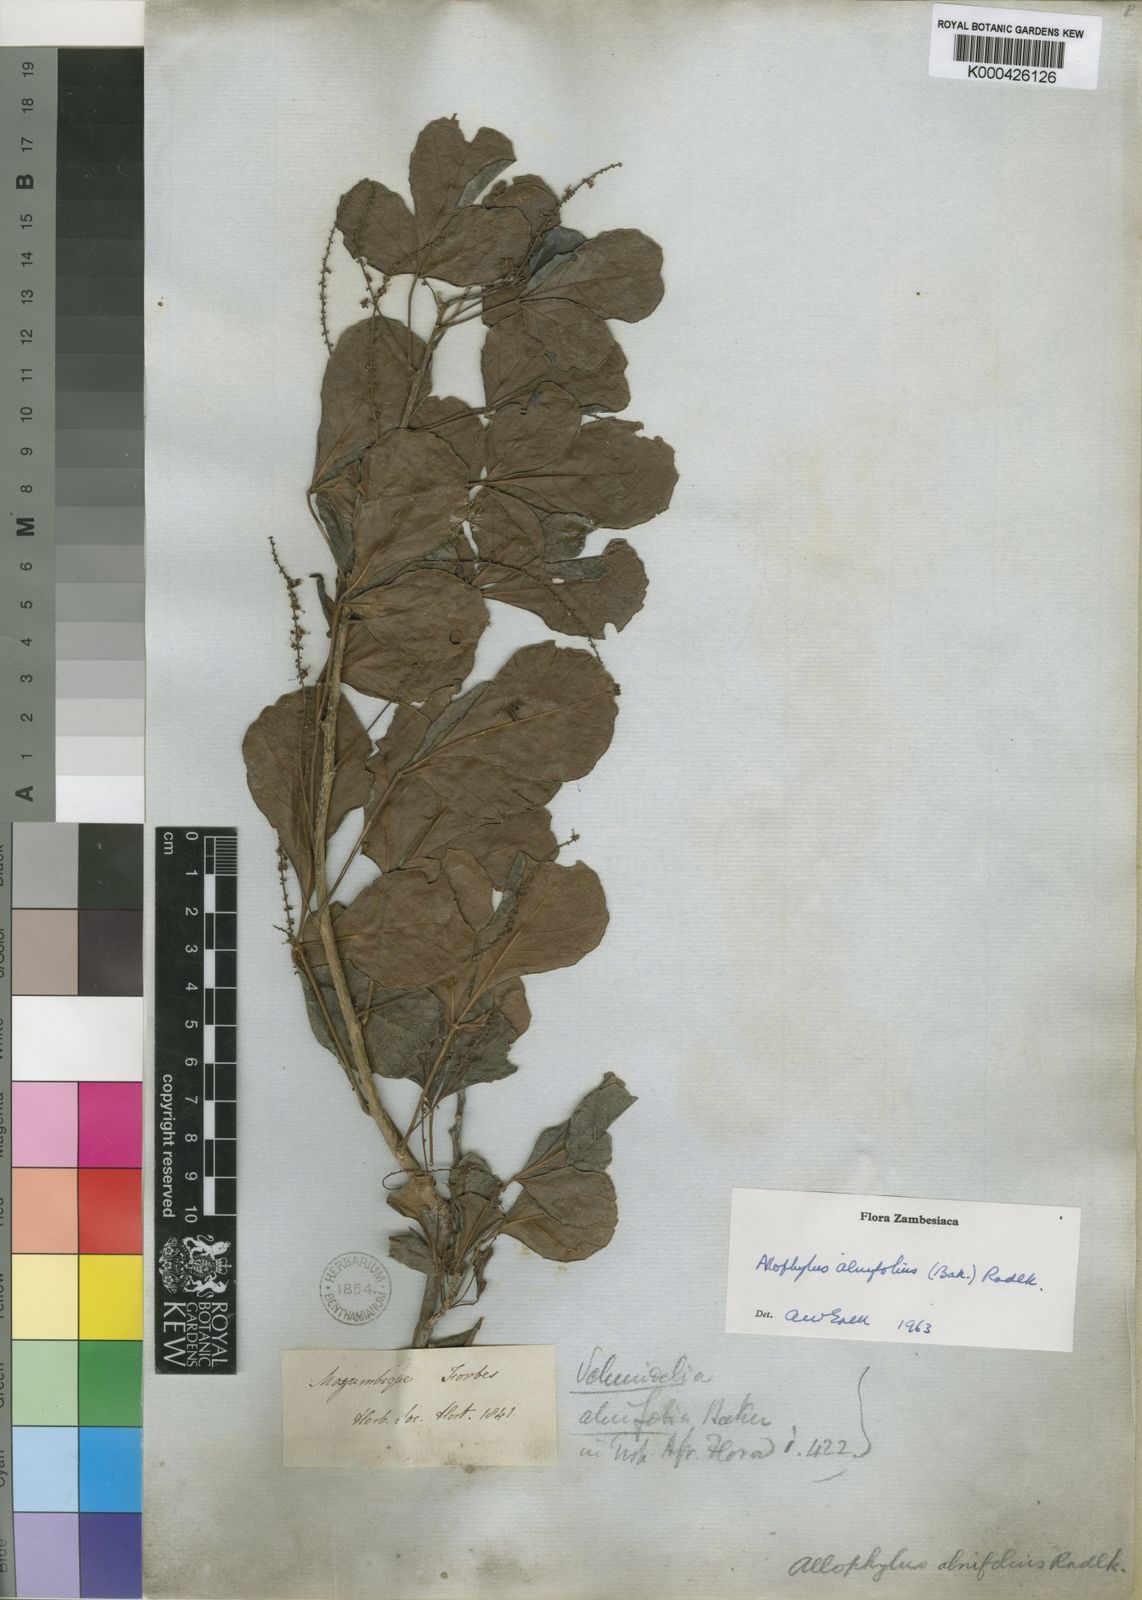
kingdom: Plantae
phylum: Tracheophyta
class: Magnoliopsida
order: Sapindales
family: Sapindaceae
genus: Allophylus
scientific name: Allophylus
